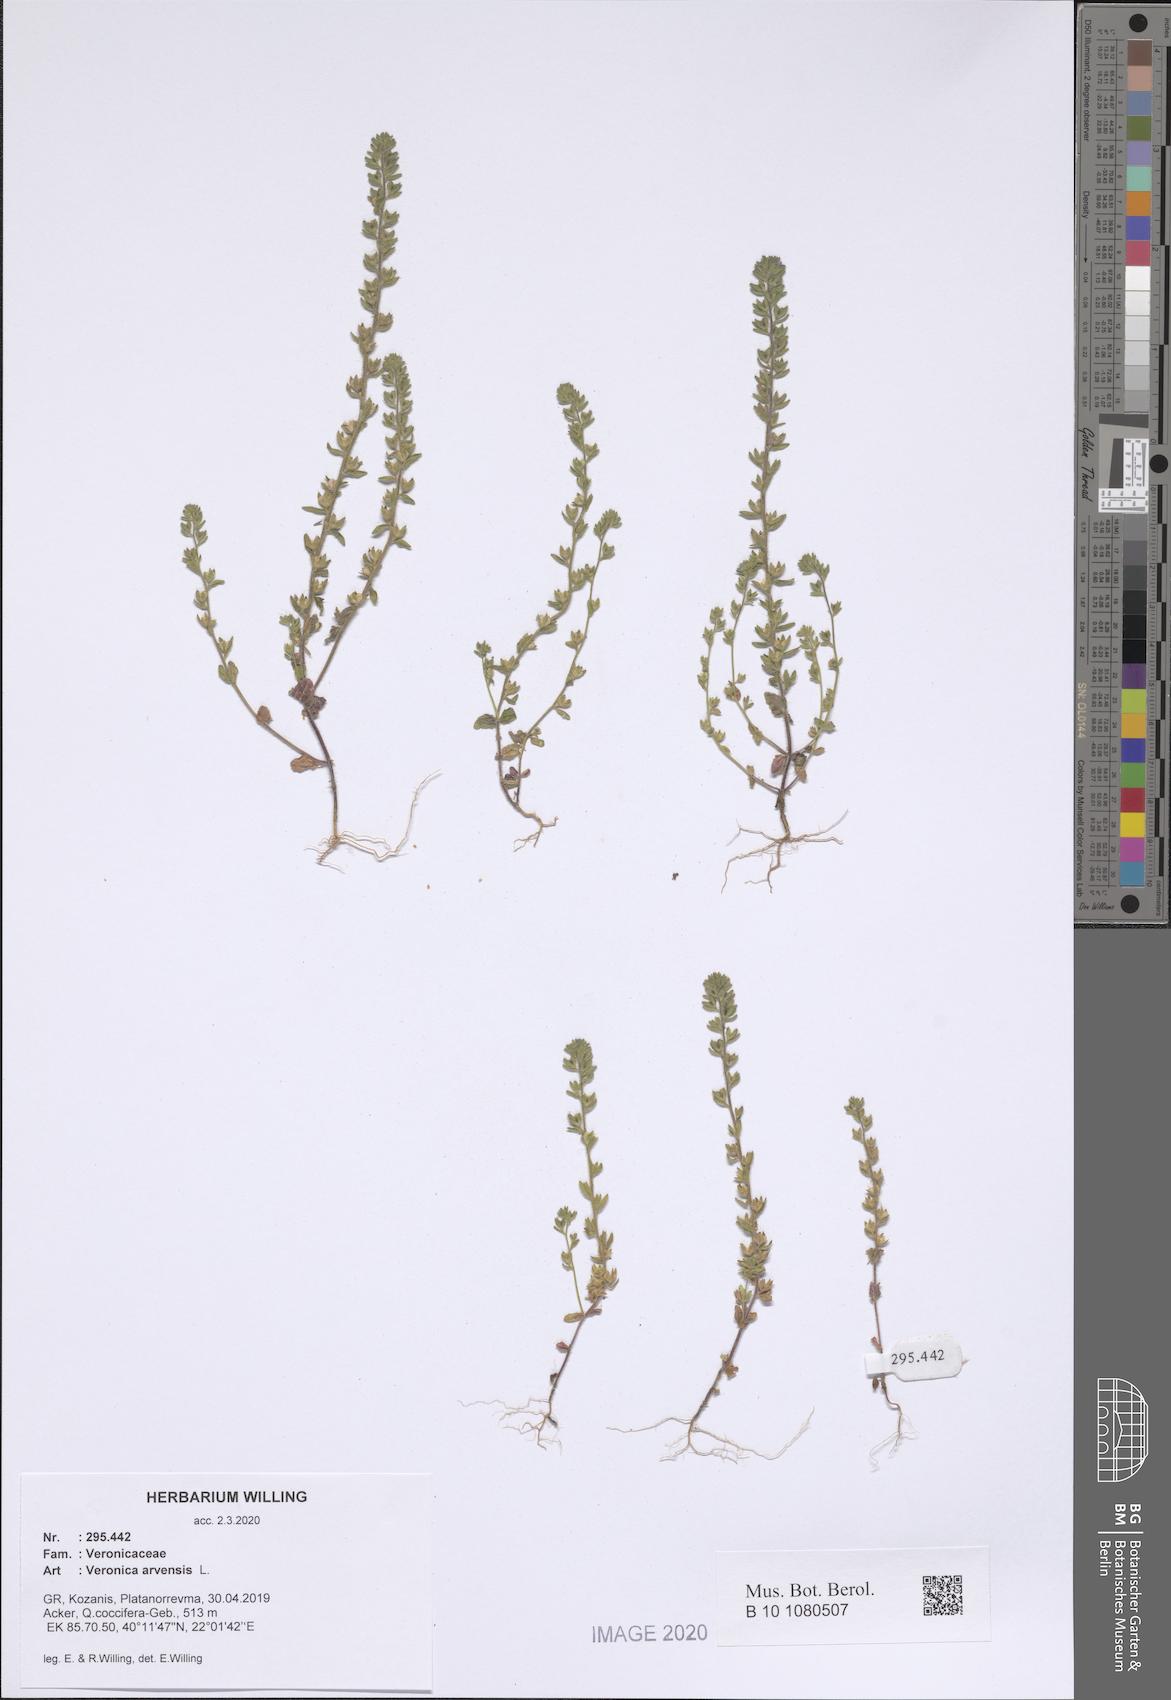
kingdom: Plantae
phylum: Tracheophyta
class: Magnoliopsida
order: Lamiales
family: Plantaginaceae
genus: Veronica
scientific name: Veronica arvensis
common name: Corn speedwell
